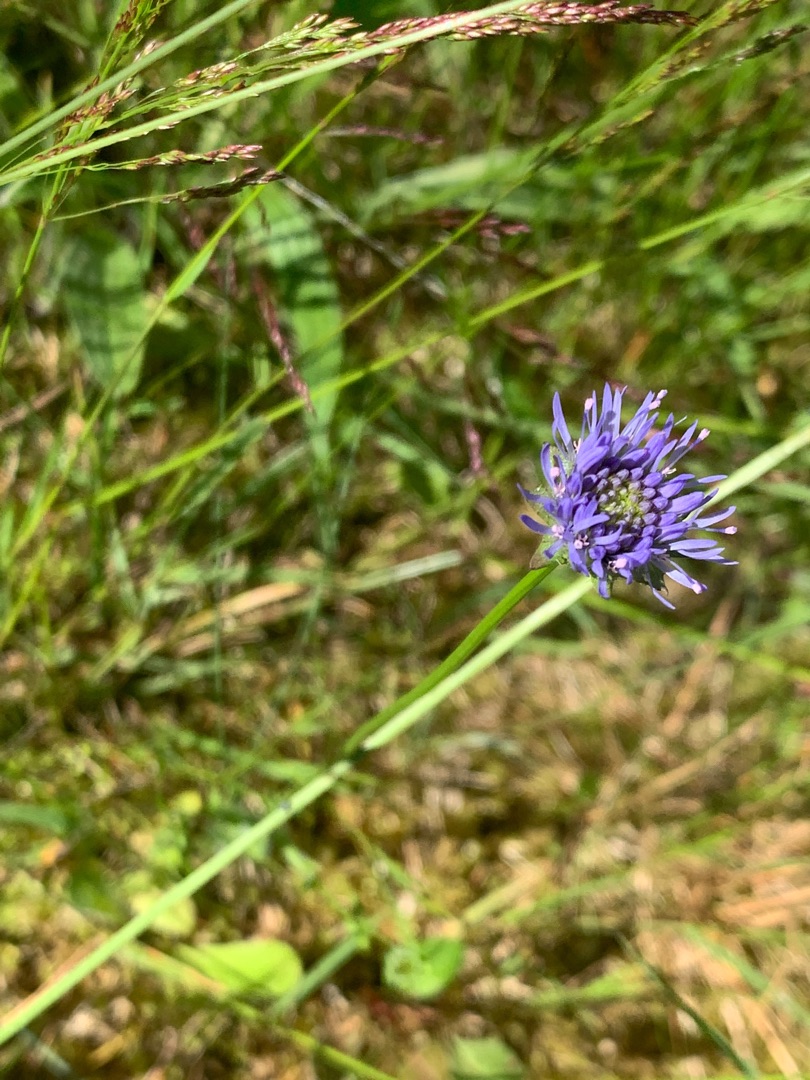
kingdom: Plantae
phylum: Tracheophyta
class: Magnoliopsida
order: Asterales
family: Campanulaceae
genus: Jasione
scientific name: Jasione montana
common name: Blåmunke
